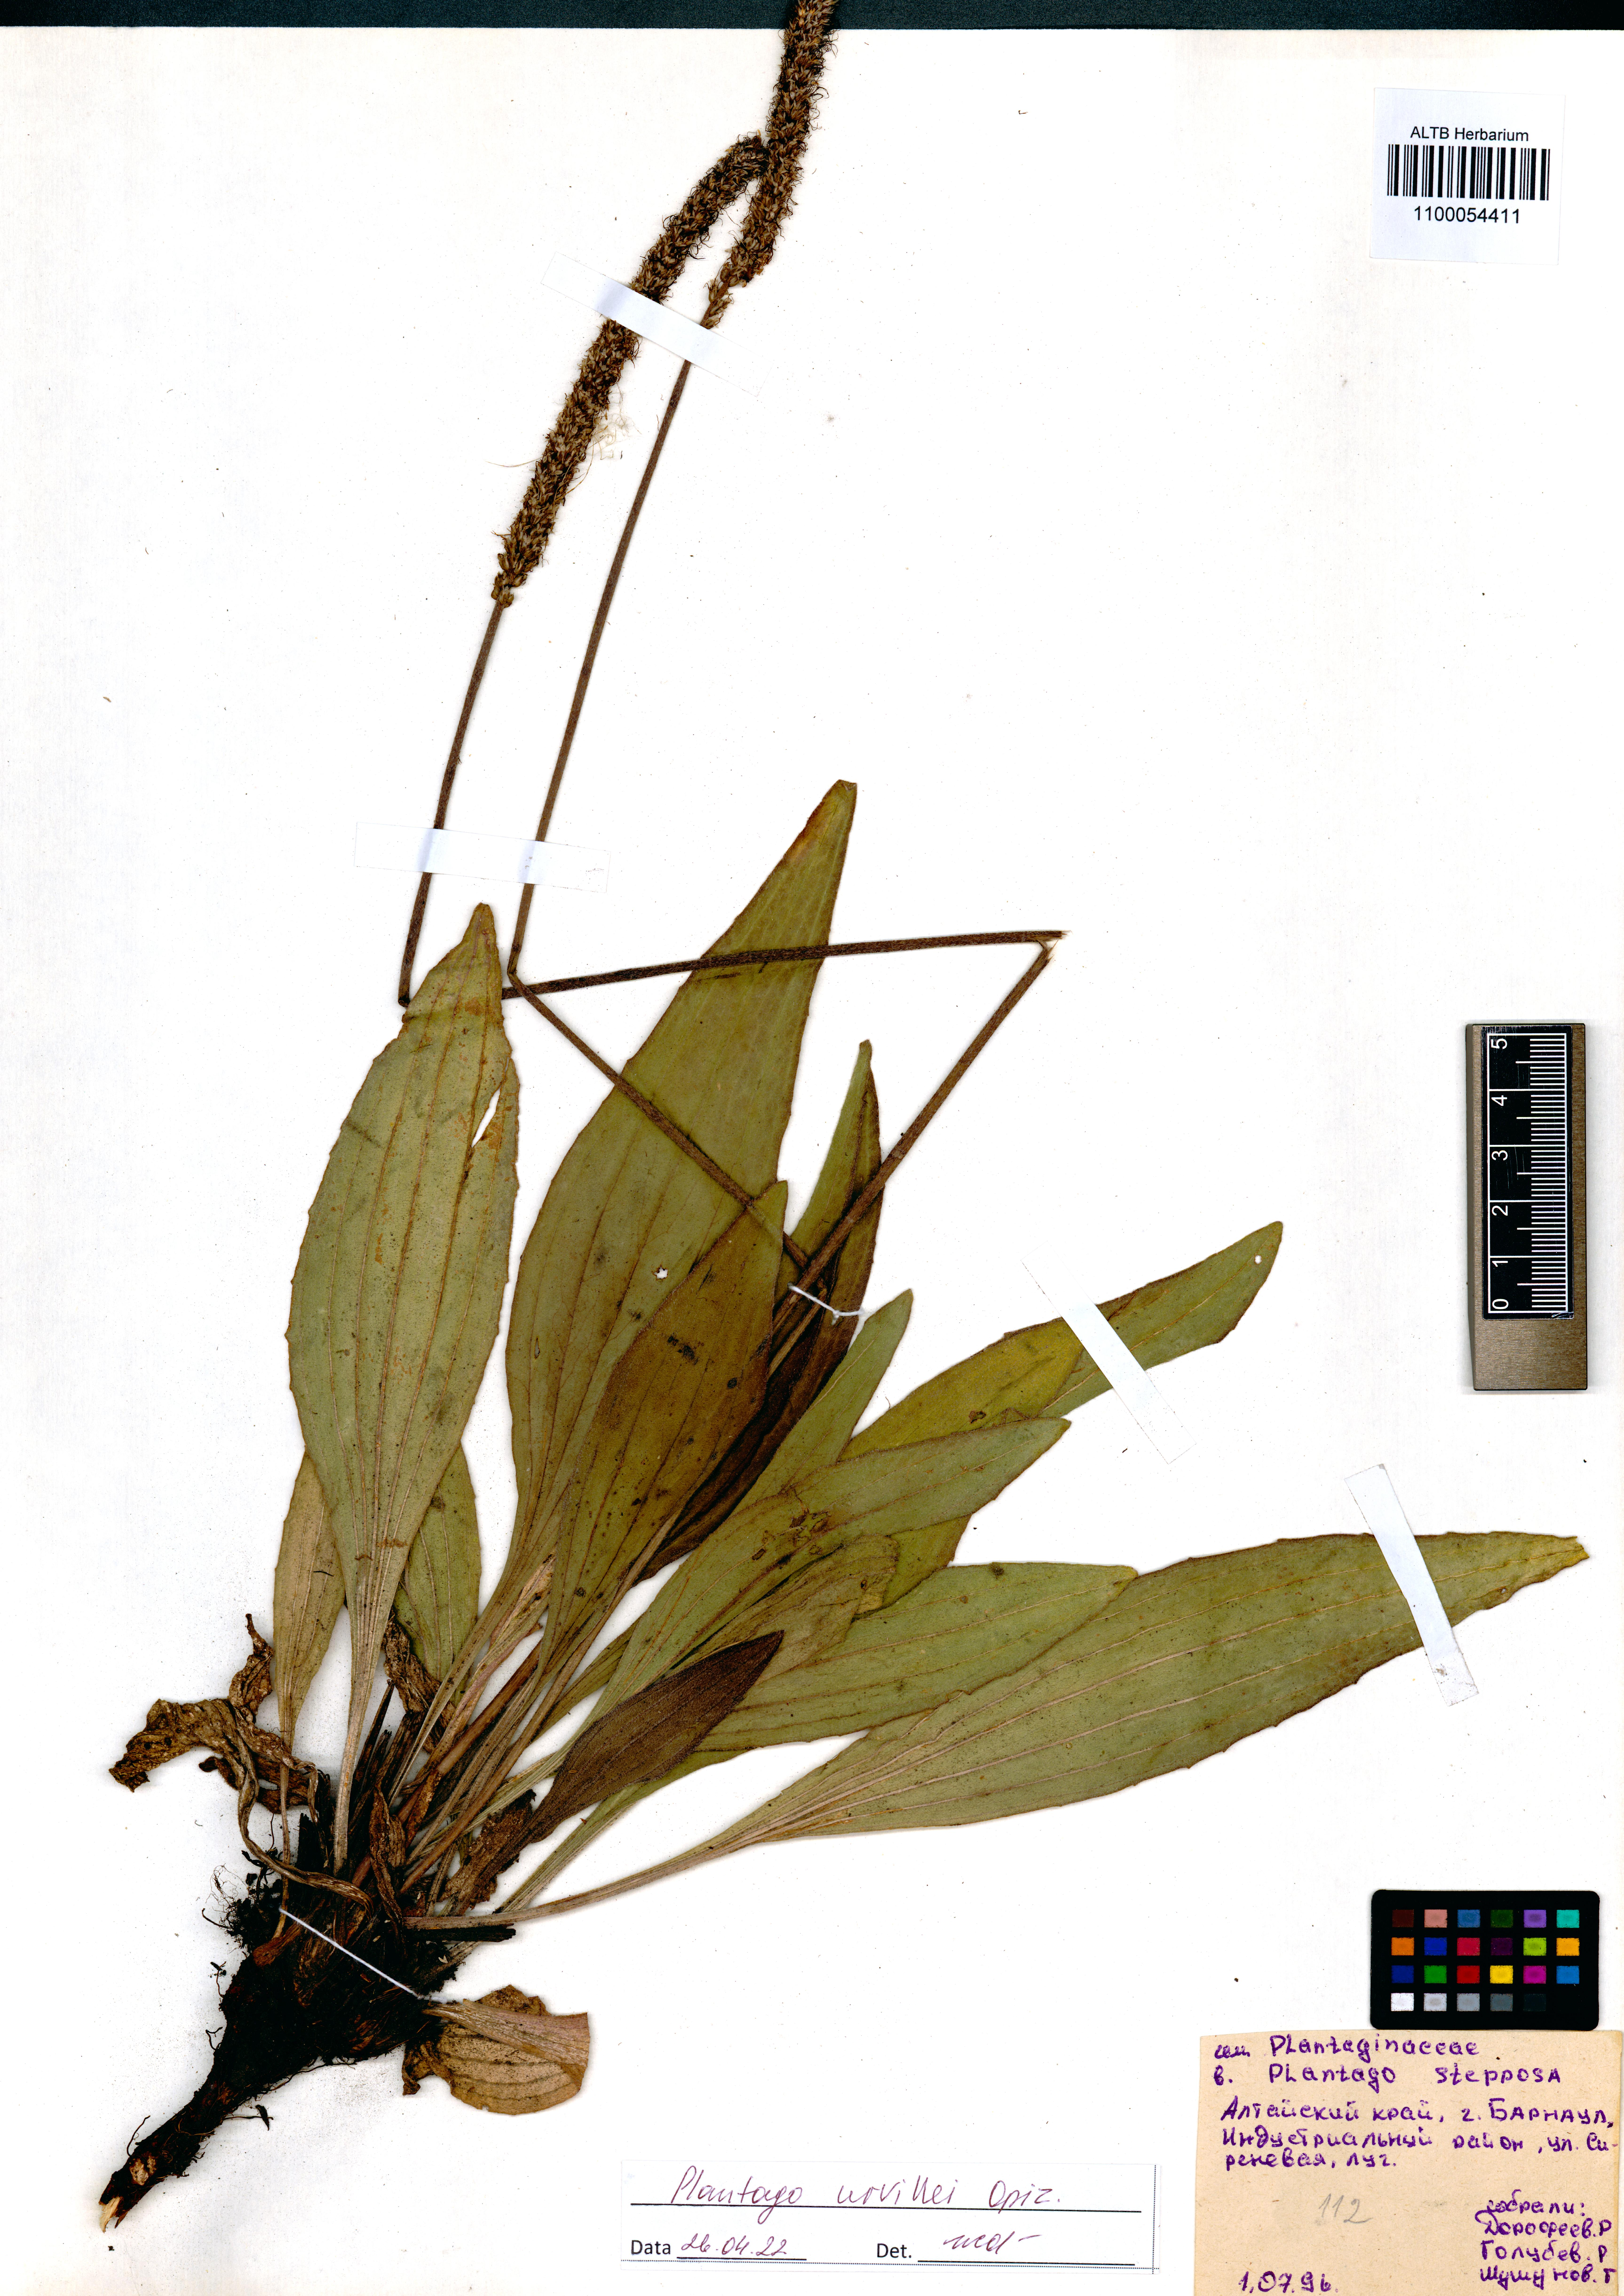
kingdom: Plantae
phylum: Tracheophyta
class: Magnoliopsida
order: Lamiales
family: Plantaginaceae
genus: Plantago
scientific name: Plantago urvillei
